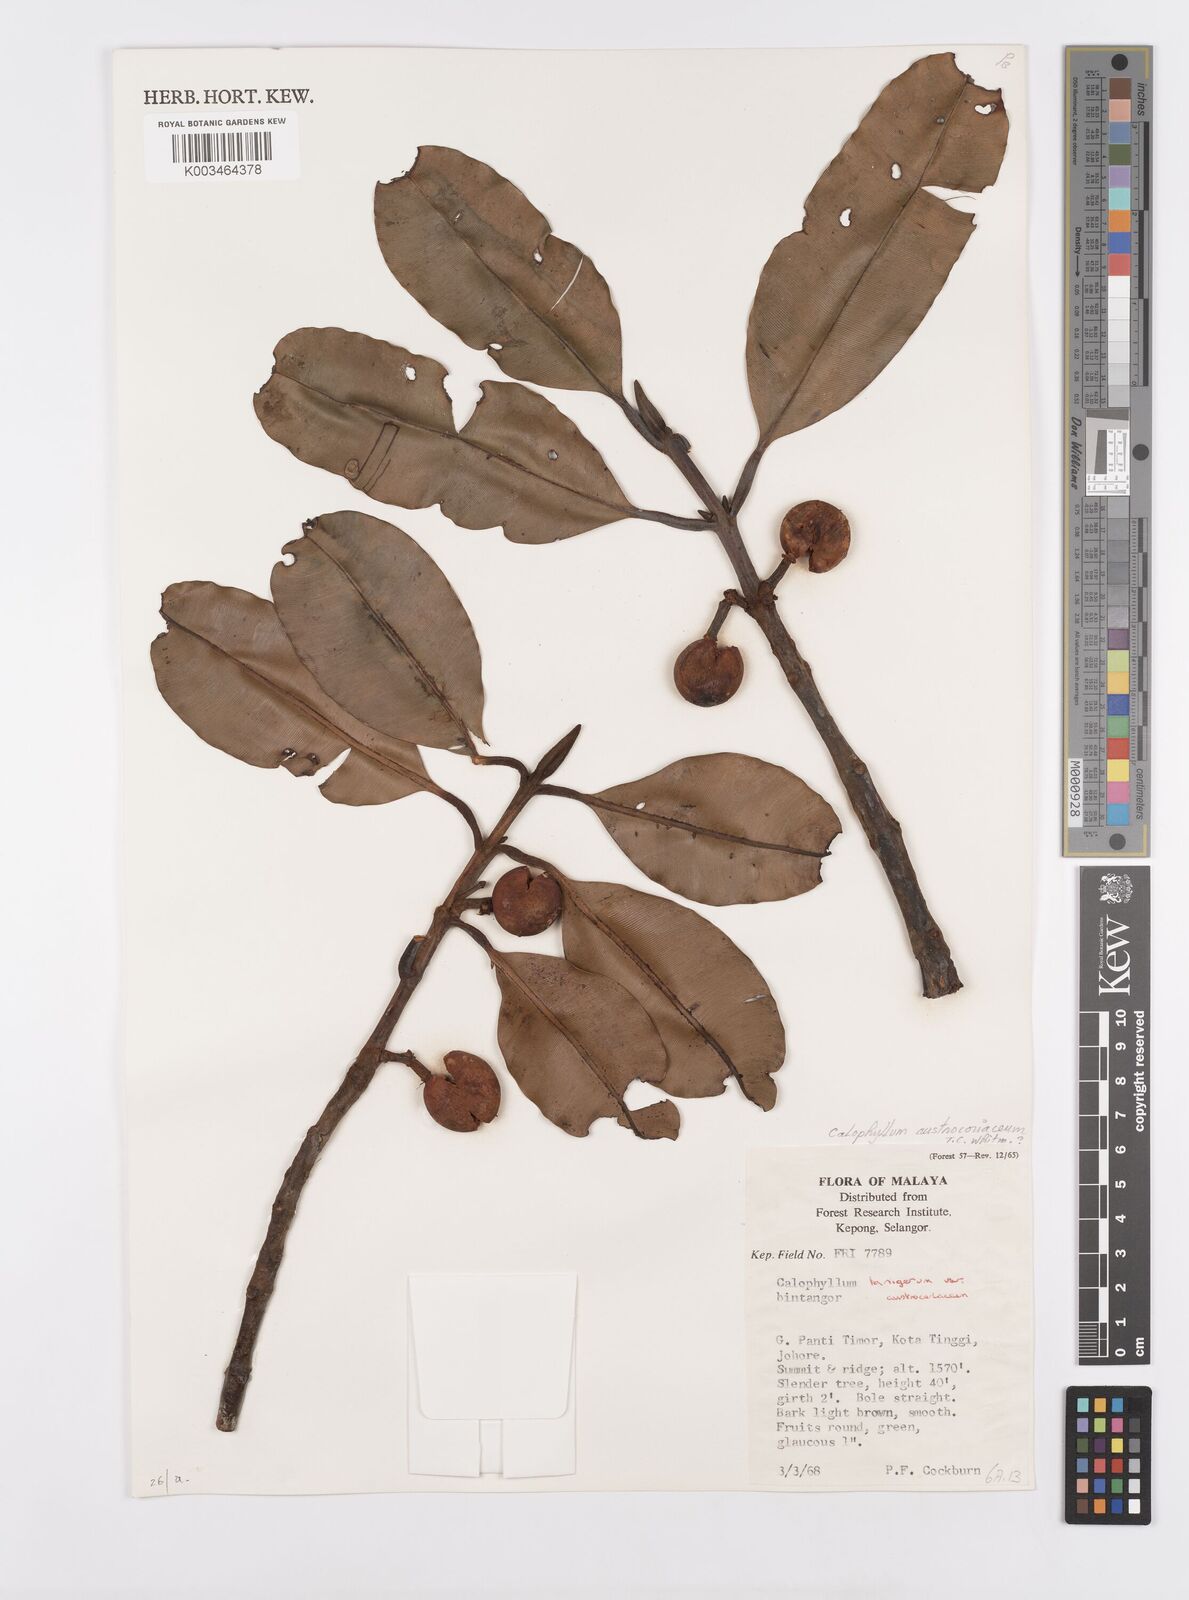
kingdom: Plantae
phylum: Tracheophyta
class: Magnoliopsida
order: Malpighiales
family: Calophyllaceae
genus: Calophyllum
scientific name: Calophyllum lanigerum
